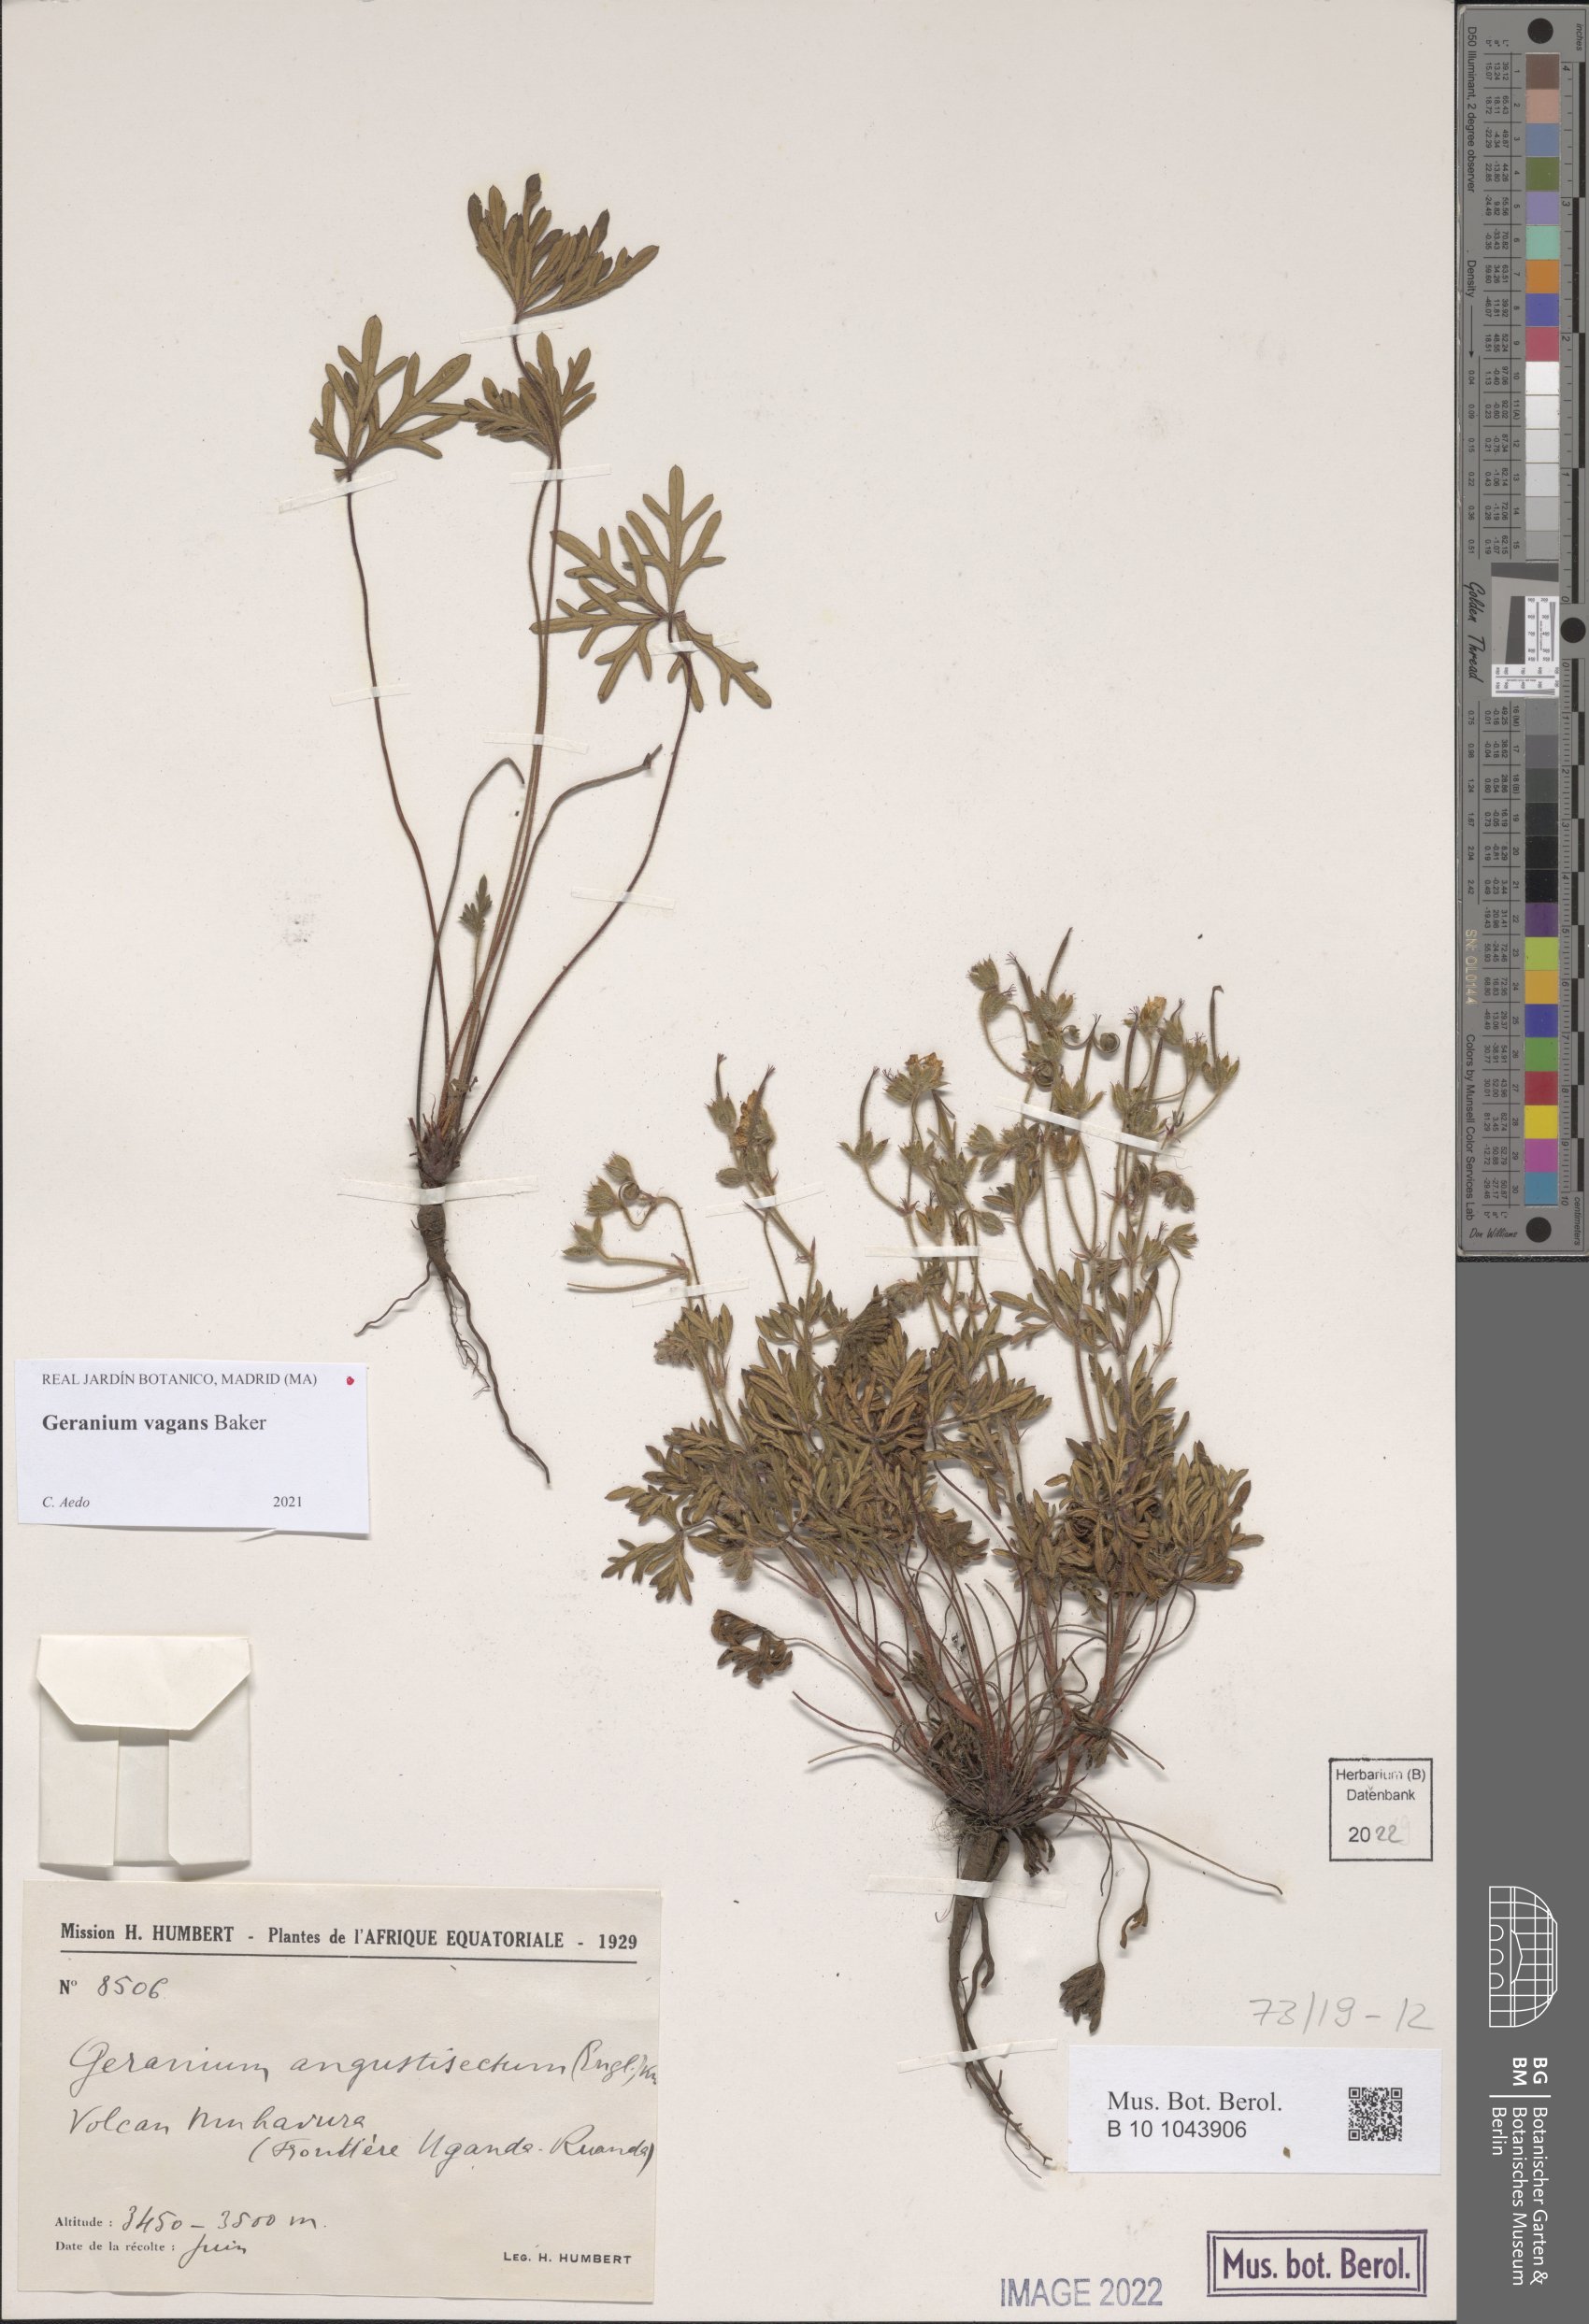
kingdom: Plantae
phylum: Tracheophyta
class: Magnoliopsida
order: Geraniales
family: Geraniaceae
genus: Geranium
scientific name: Geranium vagans
